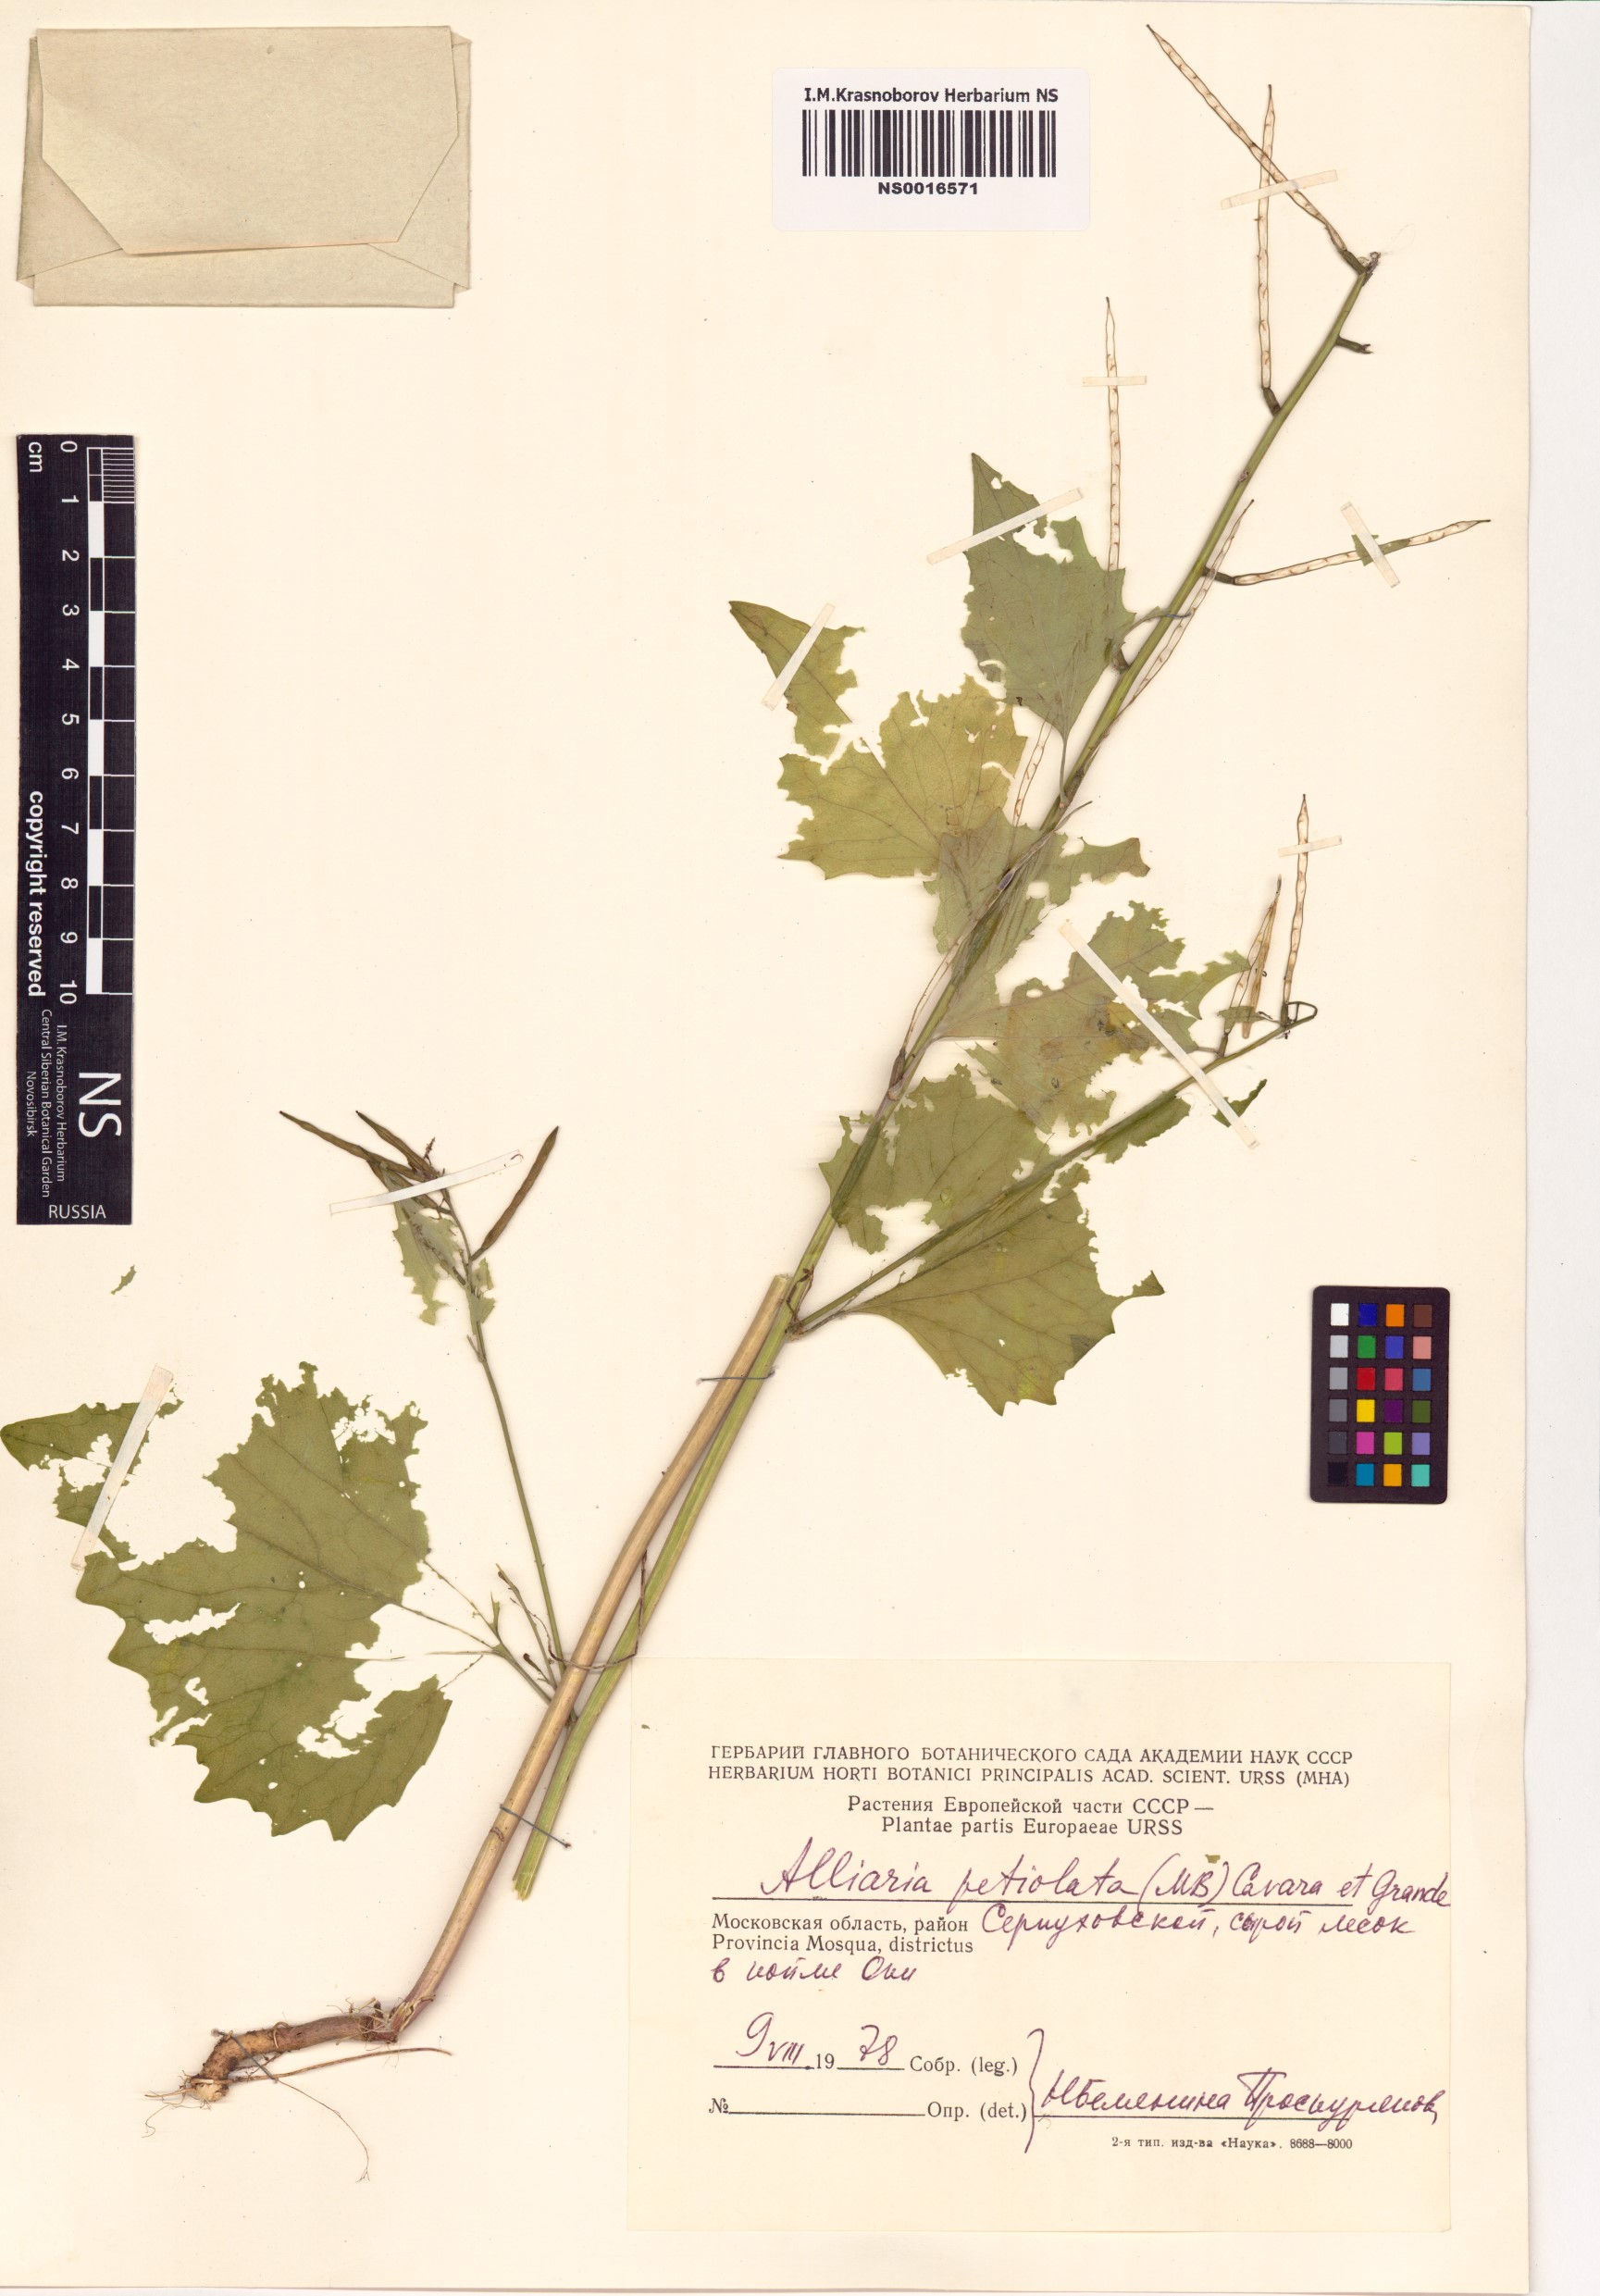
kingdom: Plantae
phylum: Tracheophyta
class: Magnoliopsida
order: Brassicales
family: Brassicaceae
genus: Alliaria
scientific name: Alliaria petiolata
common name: Garlic mustard
